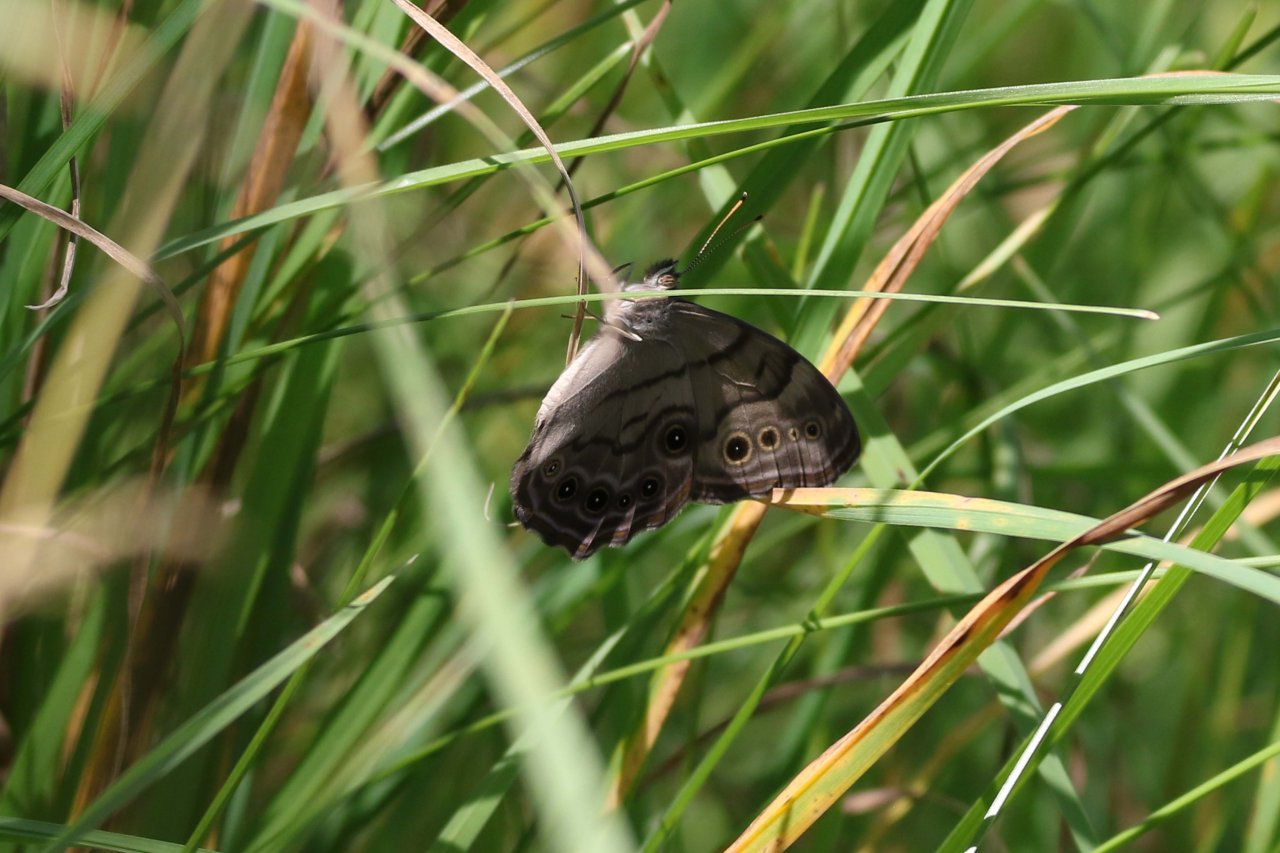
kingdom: Animalia
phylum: Arthropoda
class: Insecta
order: Lepidoptera
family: Nymphalidae
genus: Lethe
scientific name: Lethe anthedon
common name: Northern Pearly-Eye
